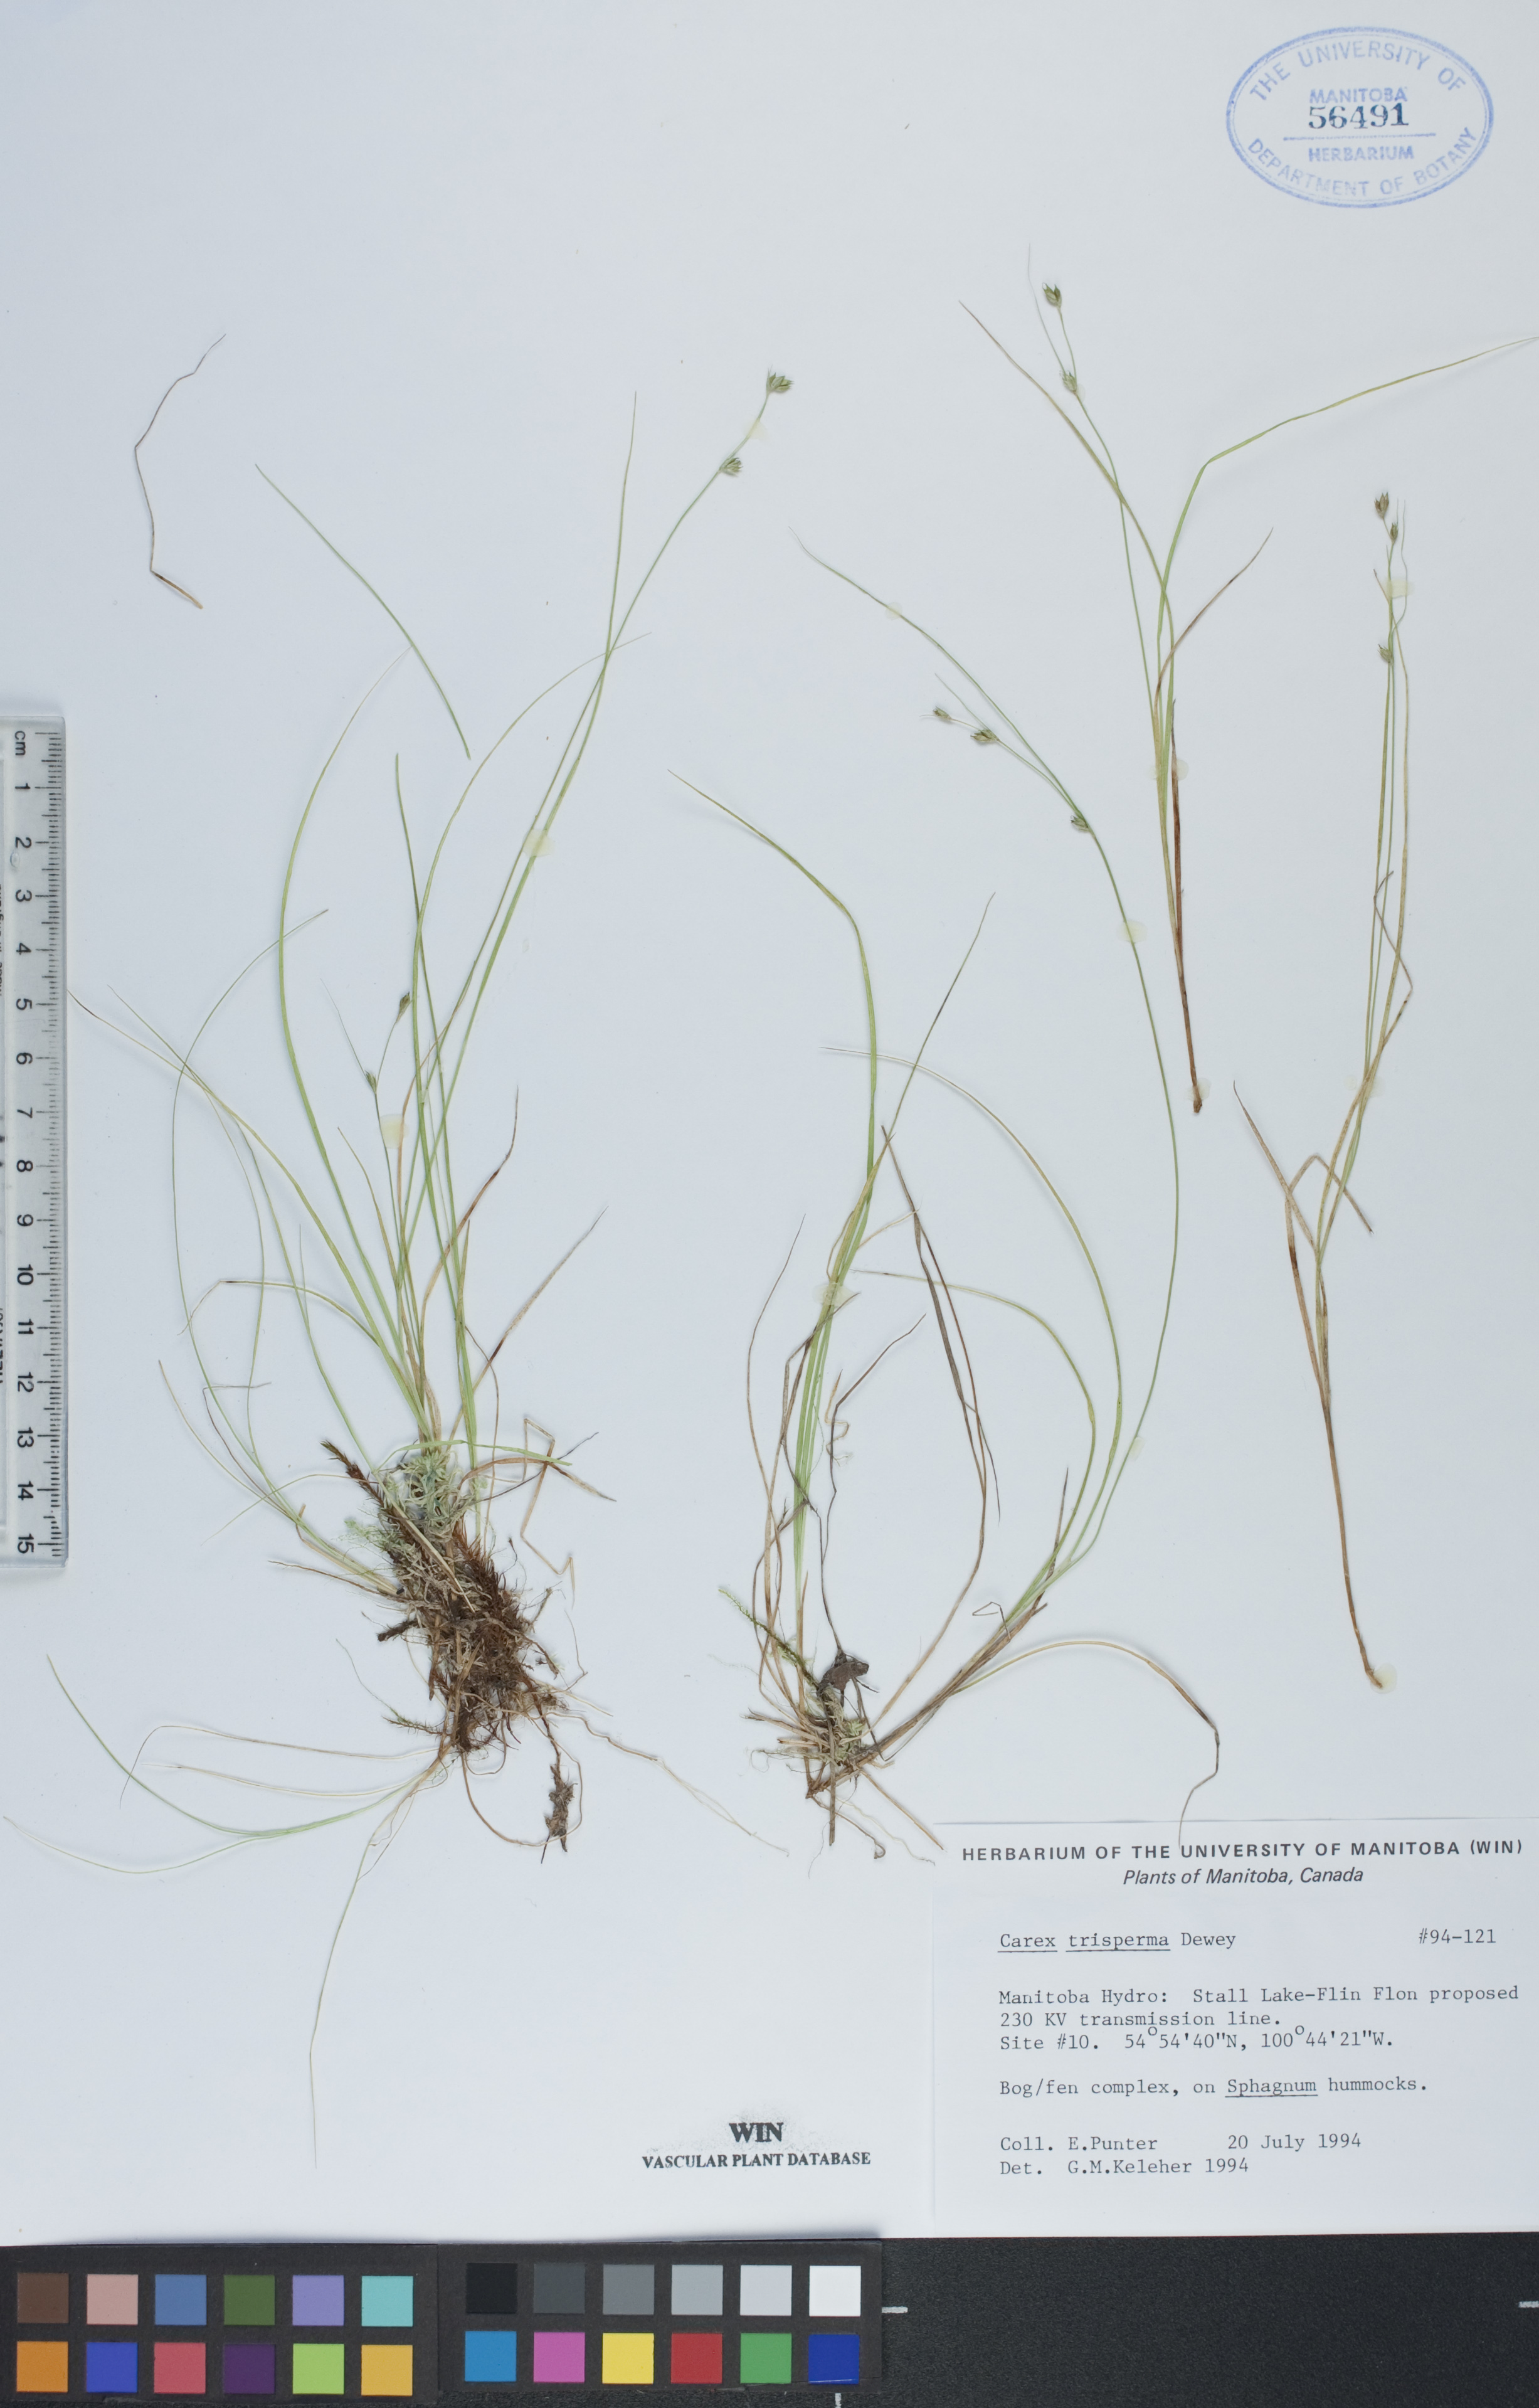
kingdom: Plantae
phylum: Tracheophyta
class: Liliopsida
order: Poales
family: Cyperaceae
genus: Carex
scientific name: Carex trisperma
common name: Three-seeded sedge
